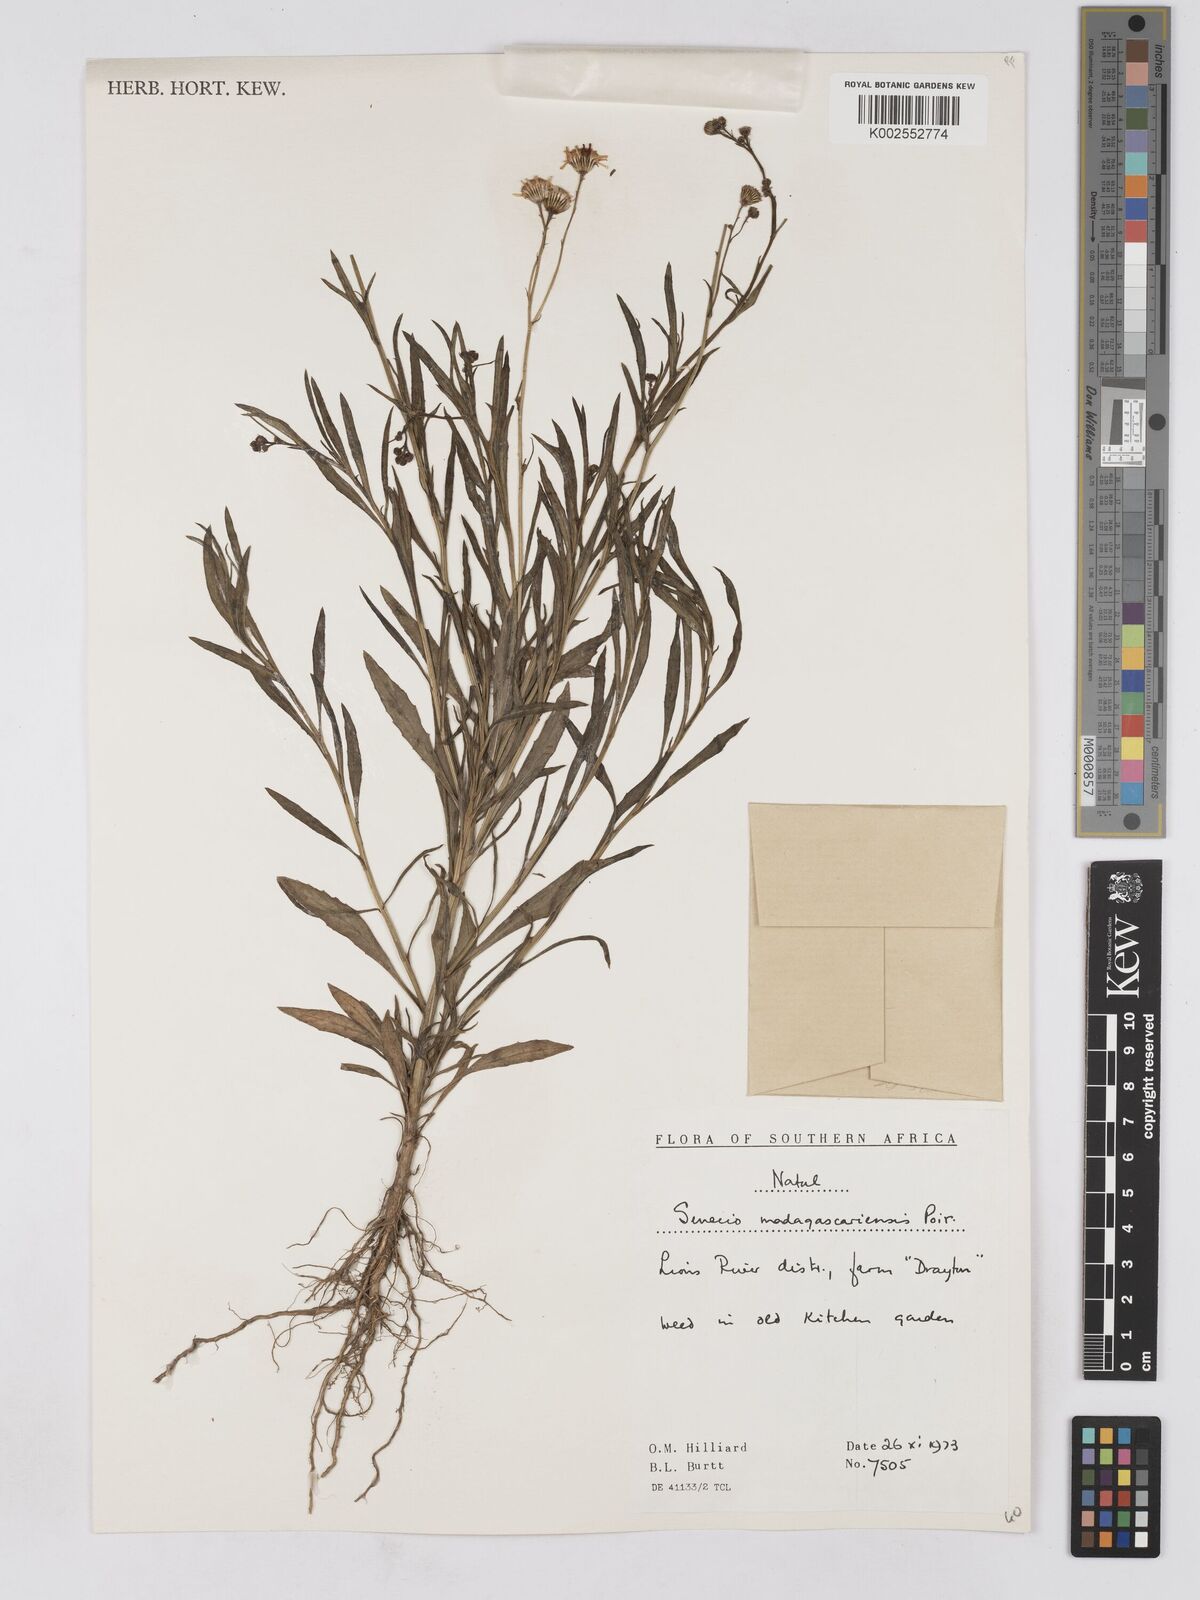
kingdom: Plantae
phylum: Tracheophyta
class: Magnoliopsida
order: Asterales
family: Asteraceae
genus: Senecio
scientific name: Senecio madagascariensis
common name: Madagascar ragwort
